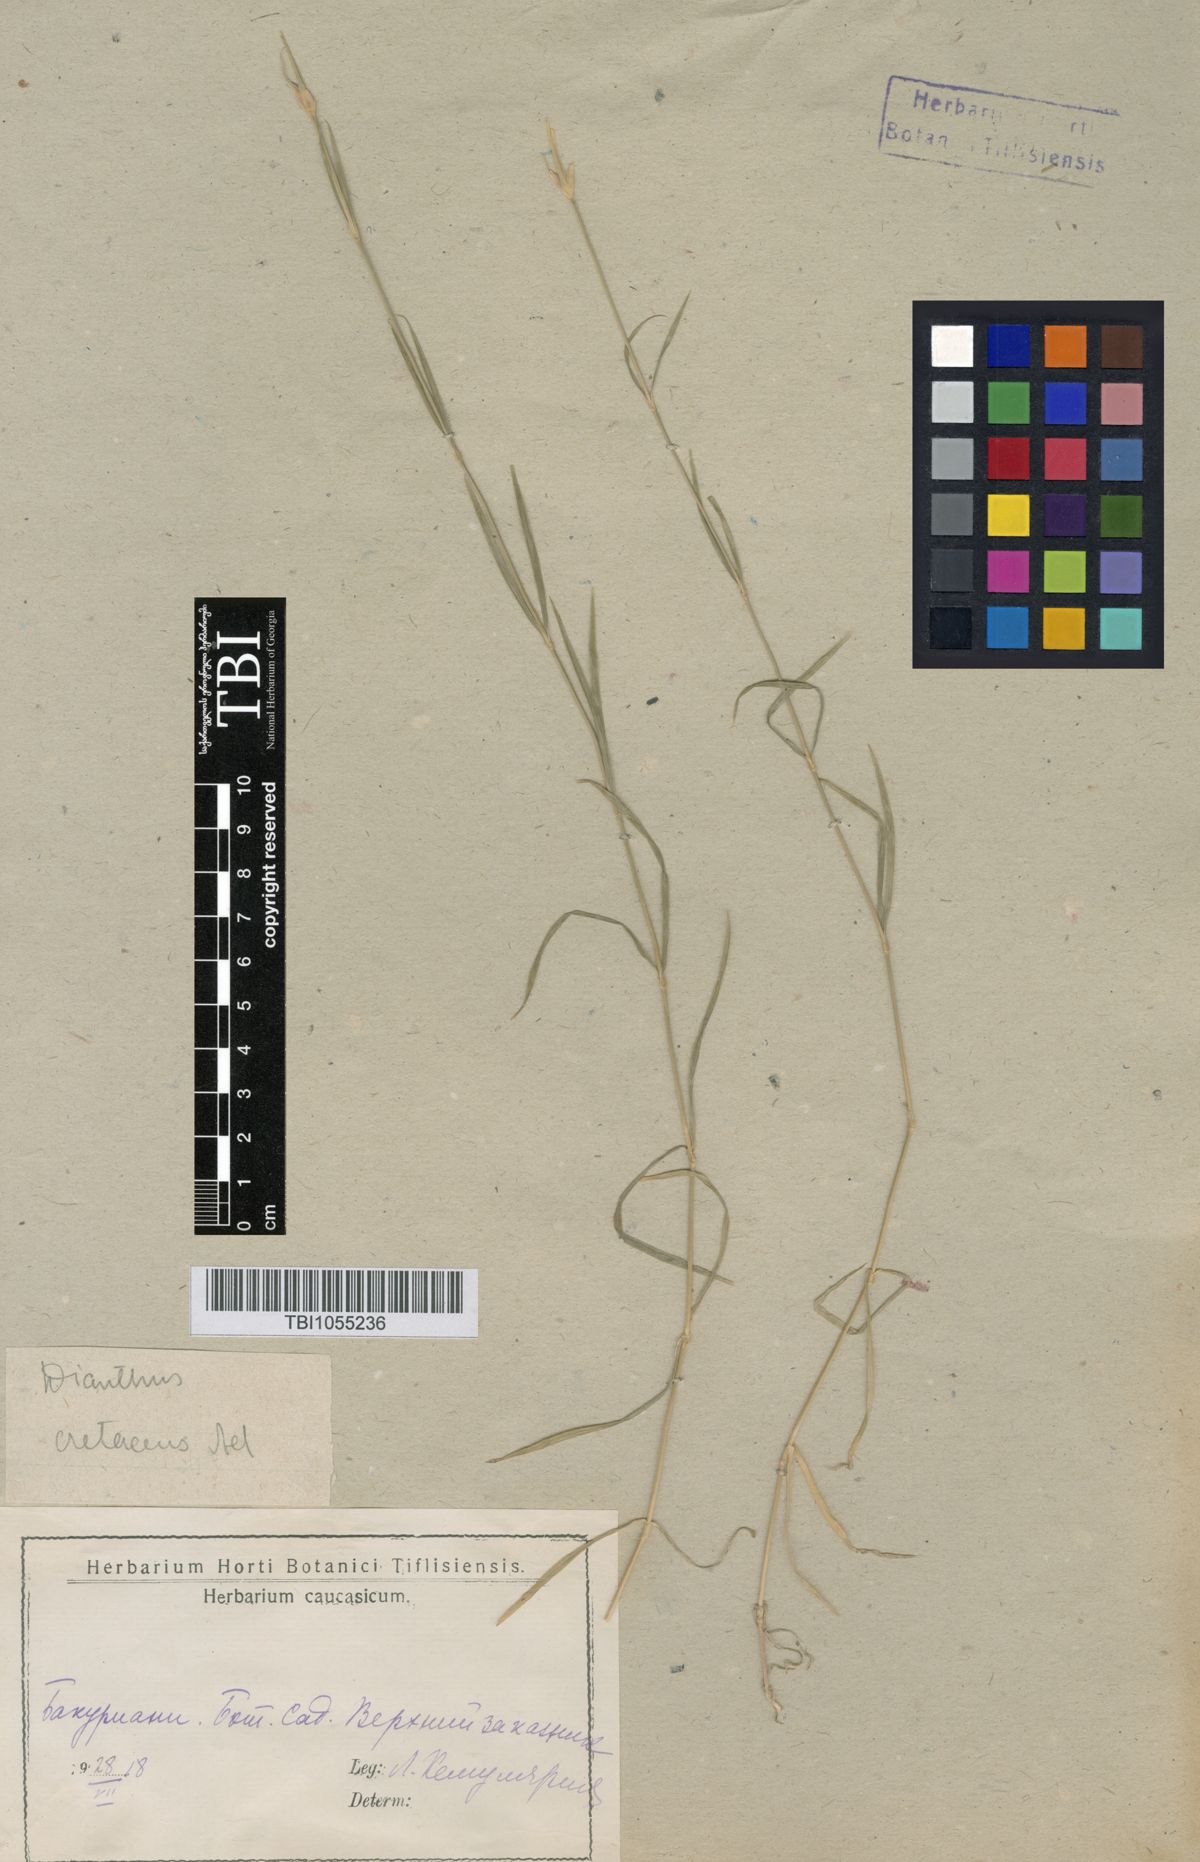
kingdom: Plantae
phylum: Tracheophyta
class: Magnoliopsida
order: Caryophyllales
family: Caryophyllaceae
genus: Dianthus
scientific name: Dianthus cretaceus
